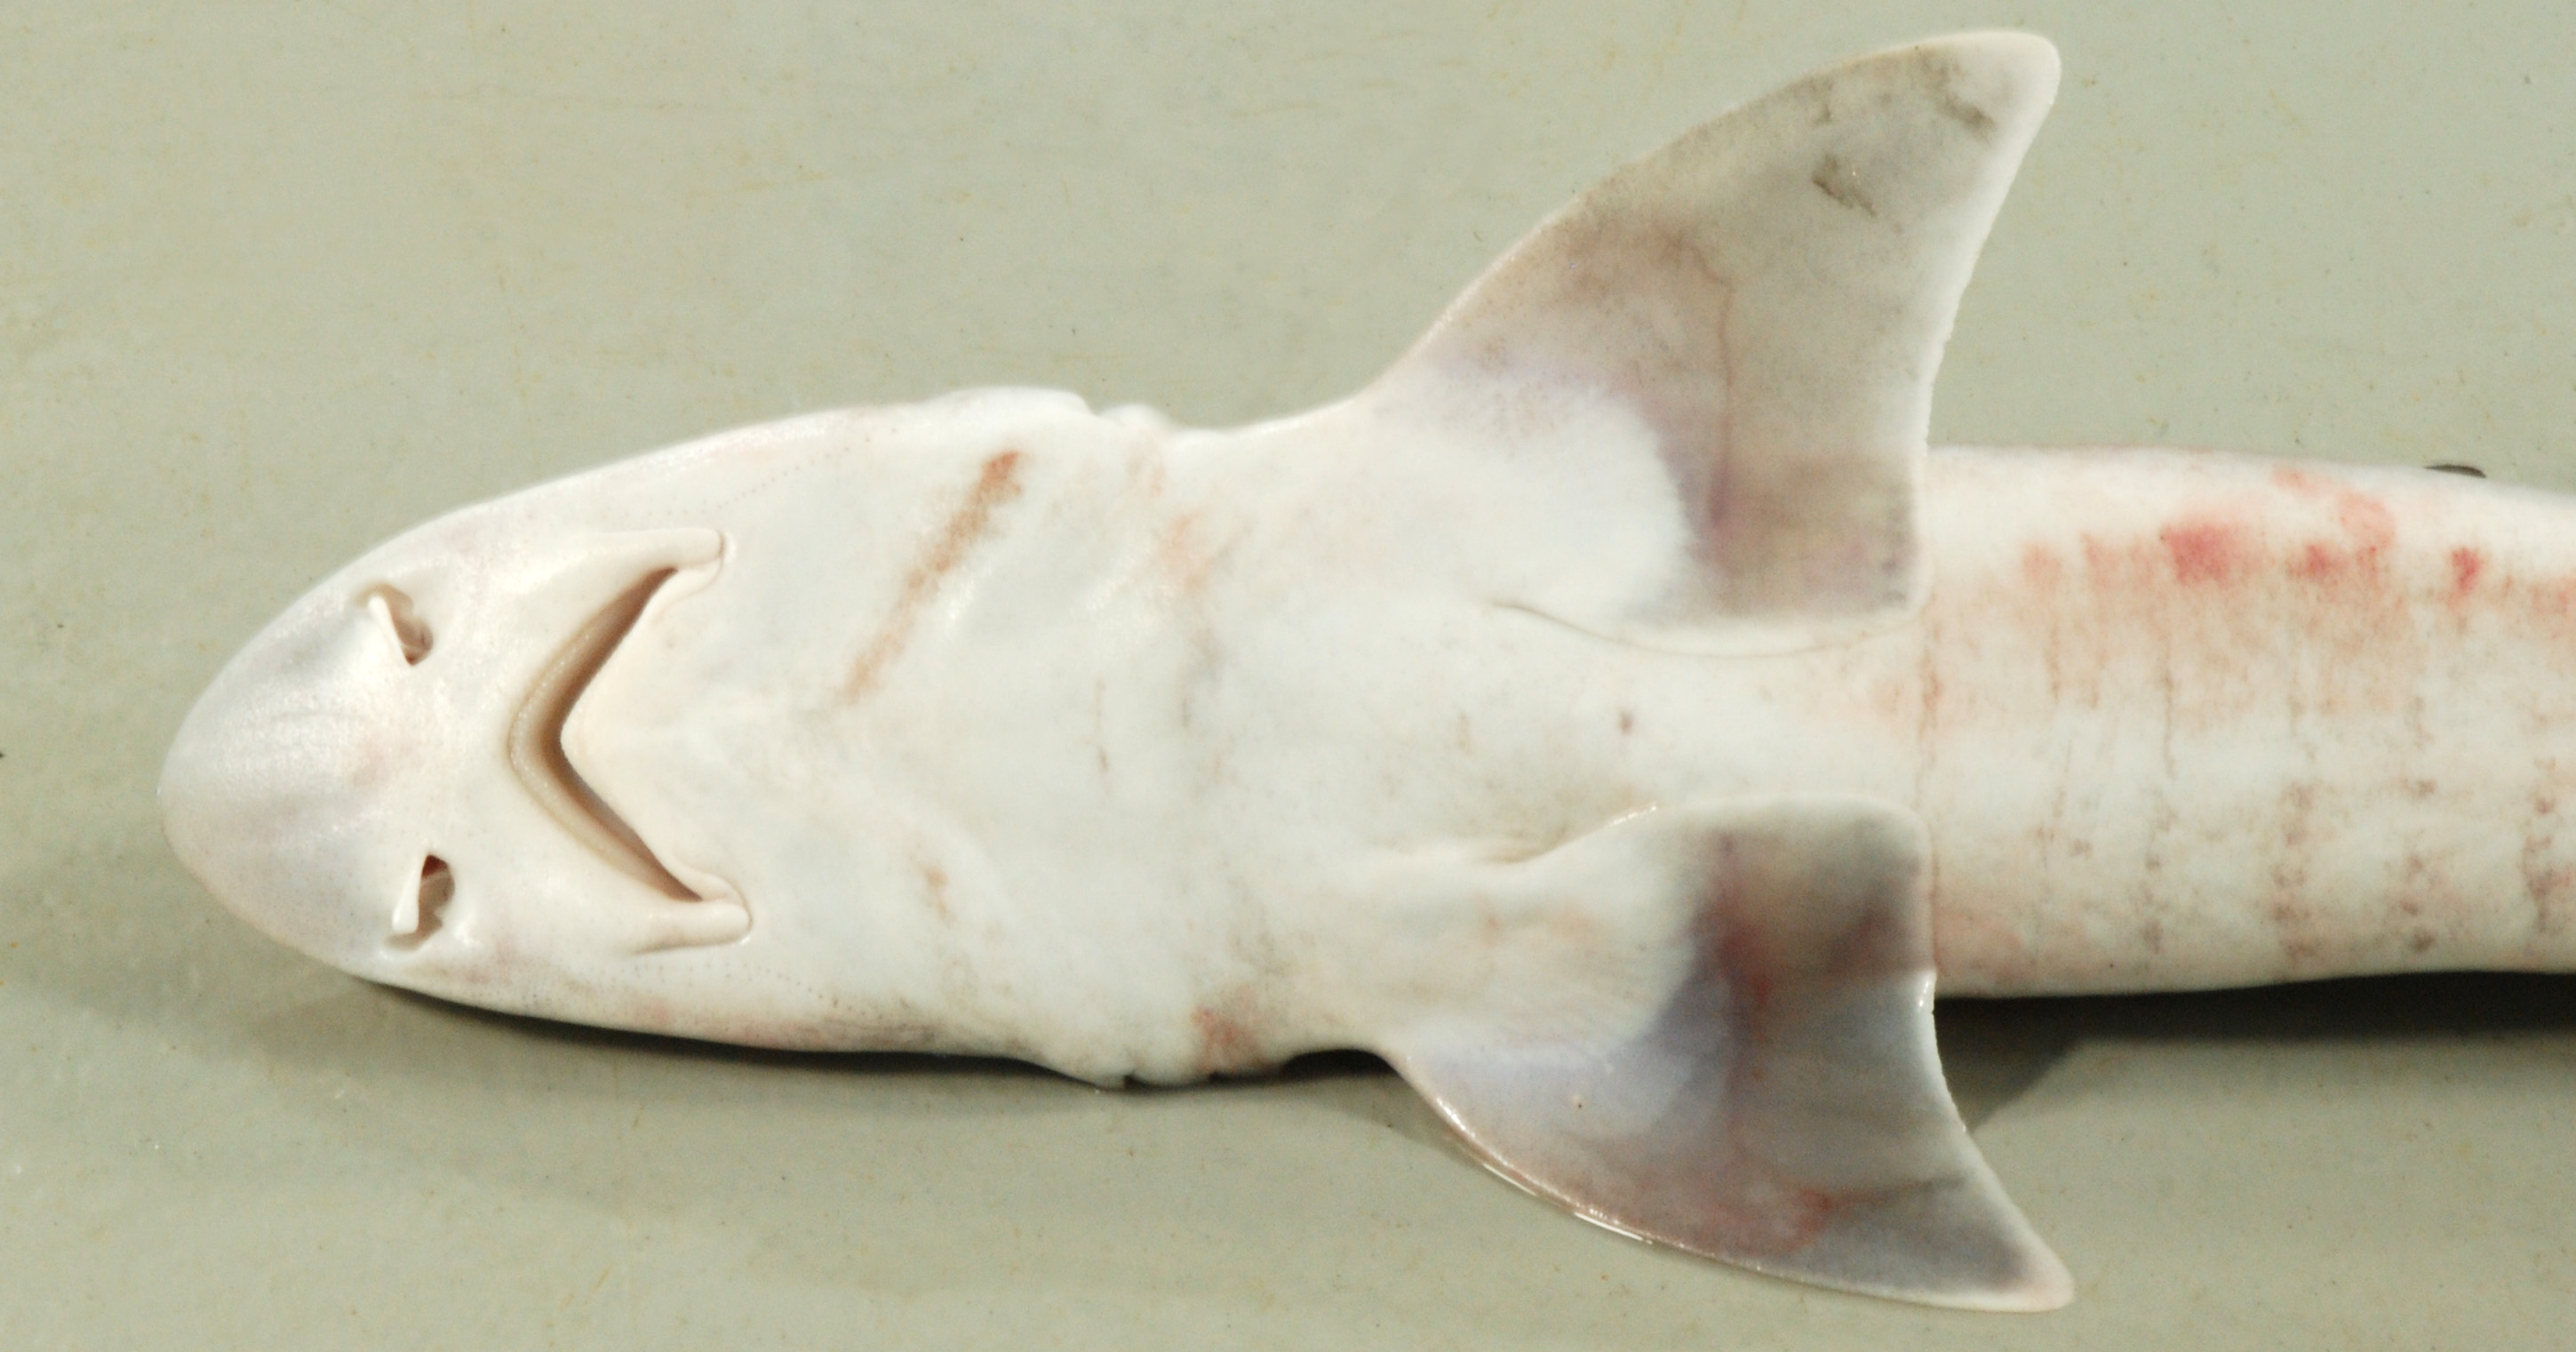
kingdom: Animalia
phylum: Chordata
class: Elasmobranchii
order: Carcharhiniformes
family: Triakidae
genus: Mustelus
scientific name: Mustelus manazo
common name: Starspotted smooth-hound
